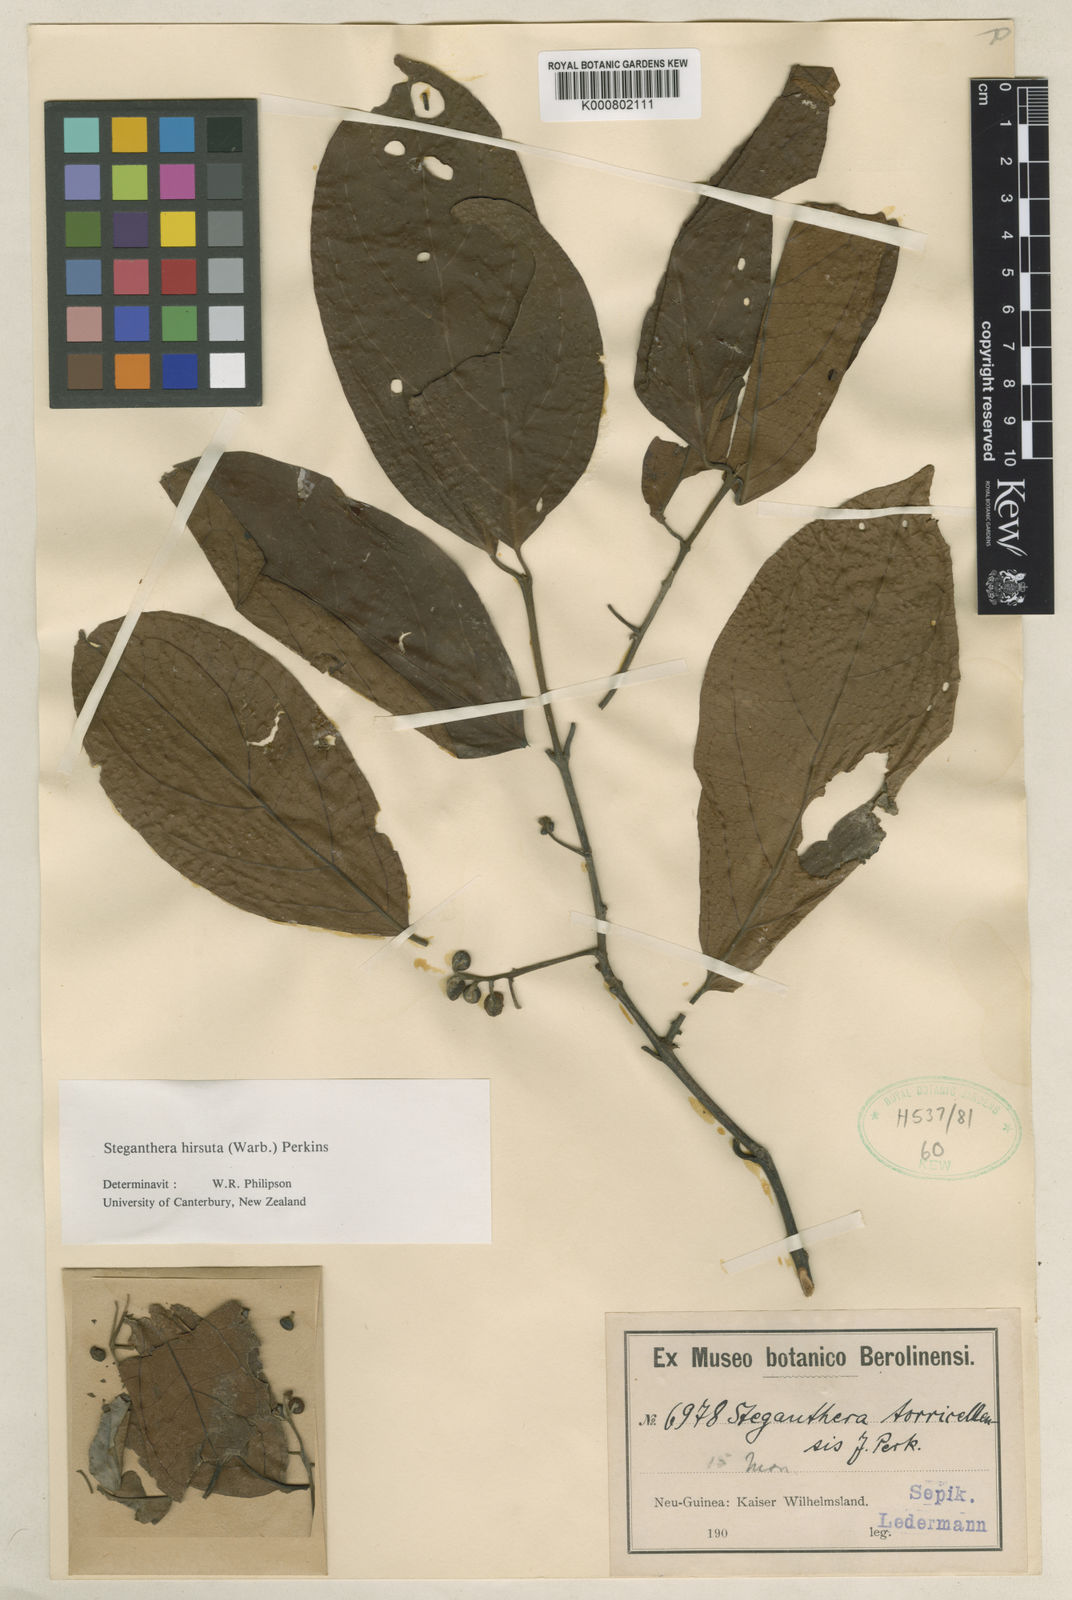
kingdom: Plantae
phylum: Tracheophyta
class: Magnoliopsida
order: Laurales
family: Monimiaceae
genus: Steganthera
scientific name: Steganthera hirsuta
